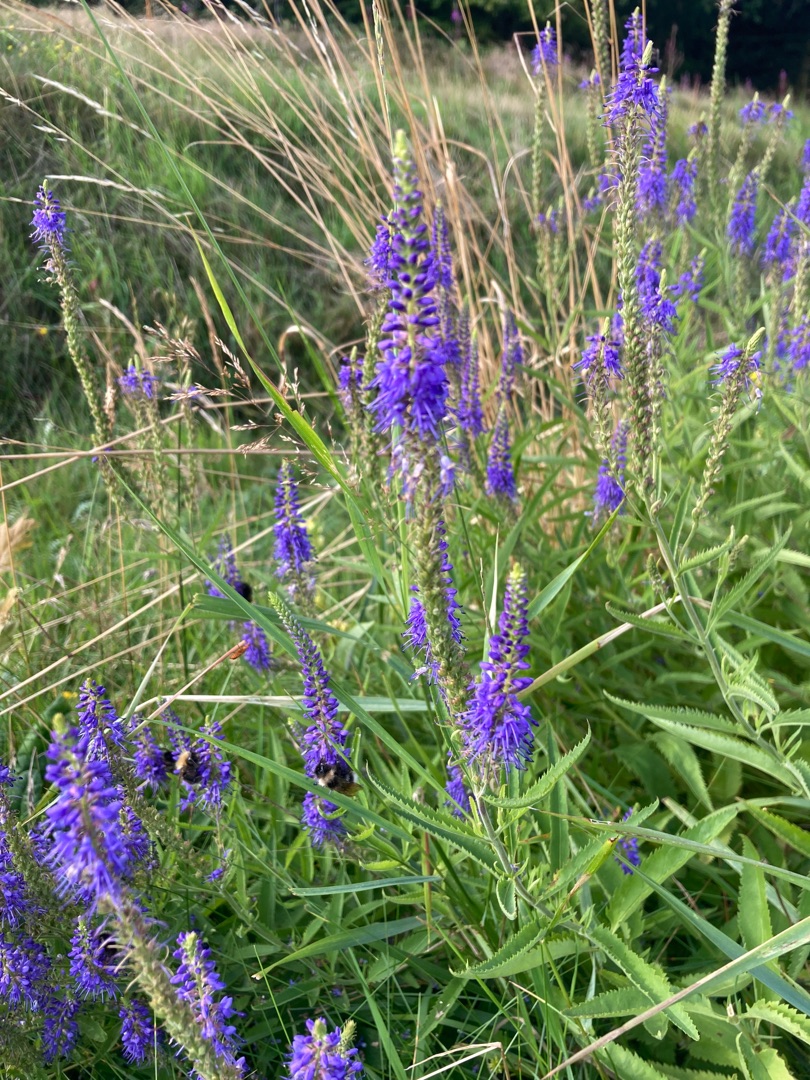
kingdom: Plantae
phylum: Tracheophyta
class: Magnoliopsida
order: Lamiales
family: Plantaginaceae
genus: Veronica
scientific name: Veronica longifolia
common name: Langbladet ærenpris
